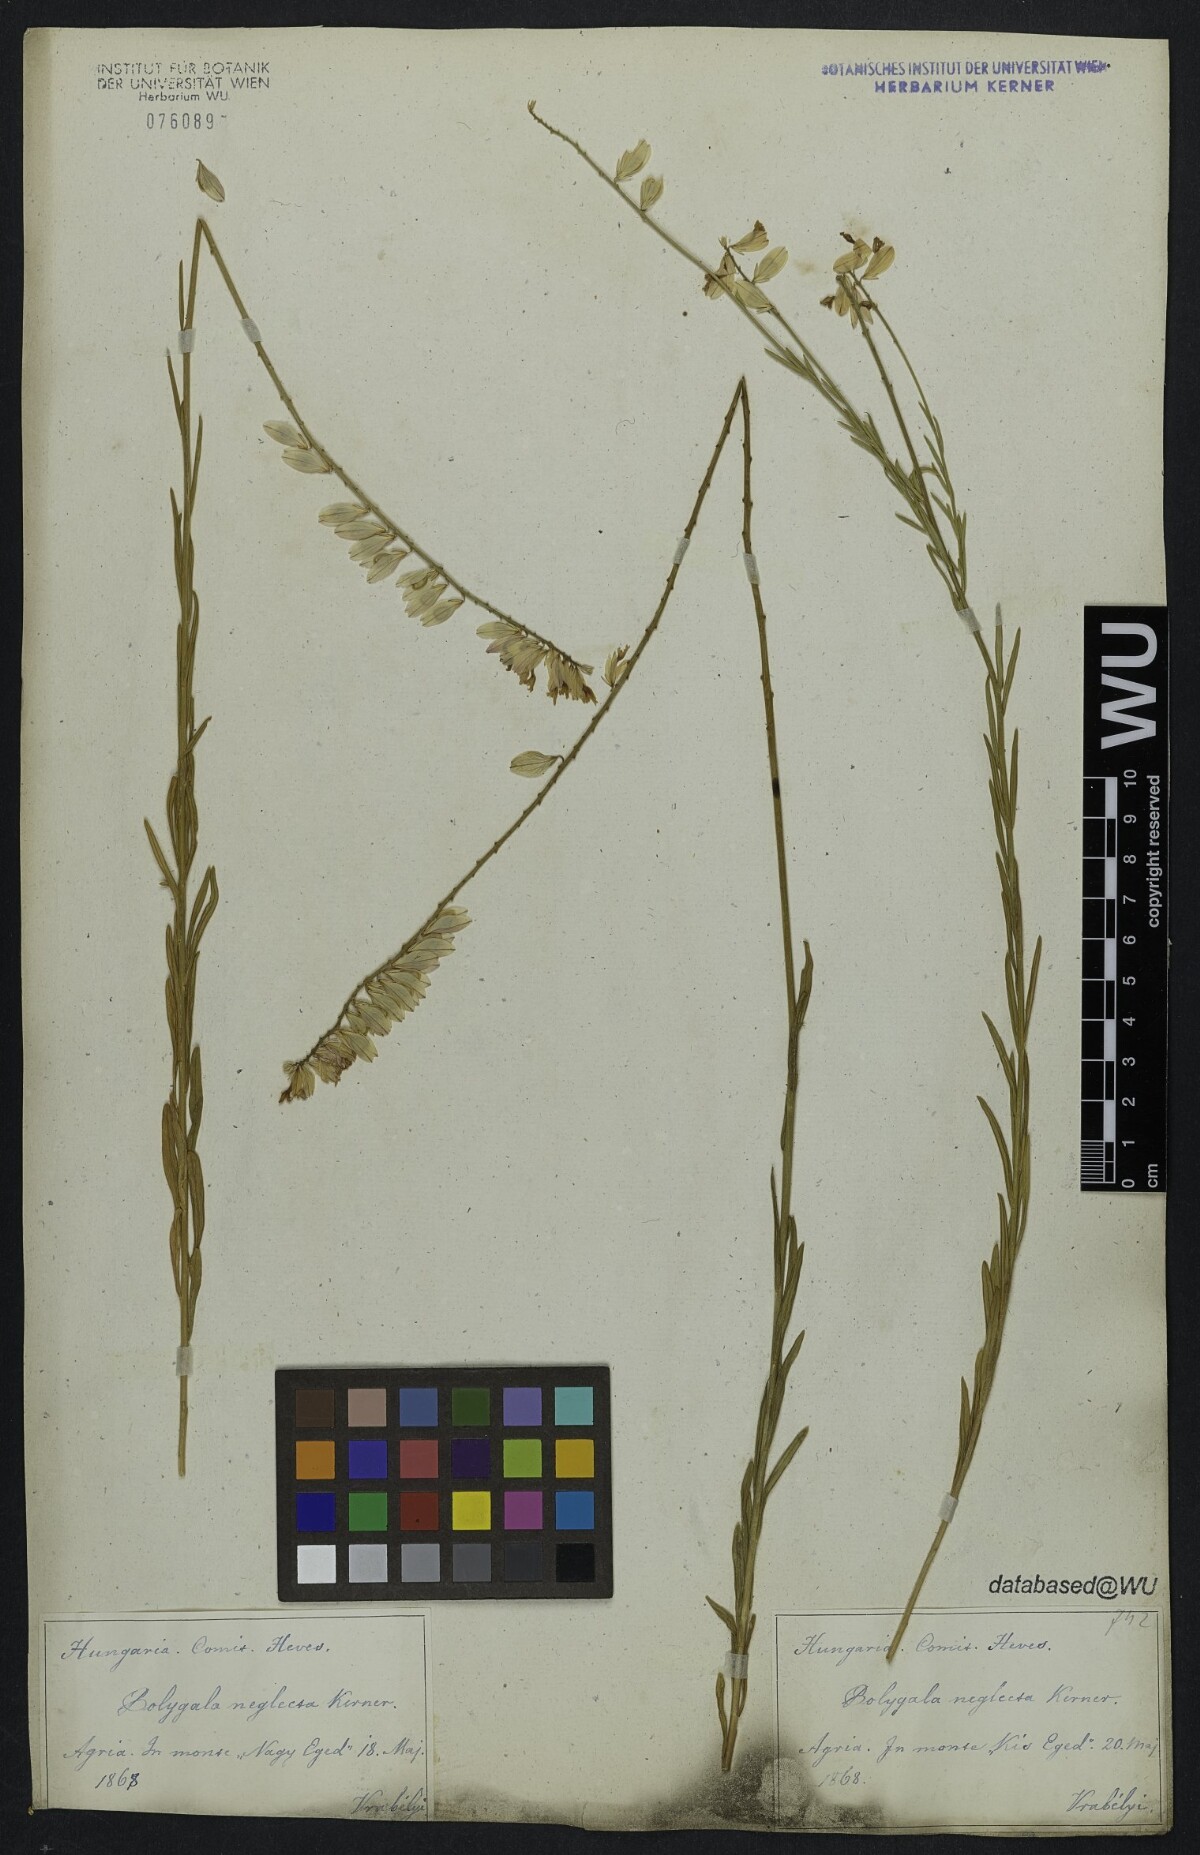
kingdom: Plantae
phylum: Tracheophyta
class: Magnoliopsida
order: Fabales
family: Polygalaceae
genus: Polygala
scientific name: Polygala major
